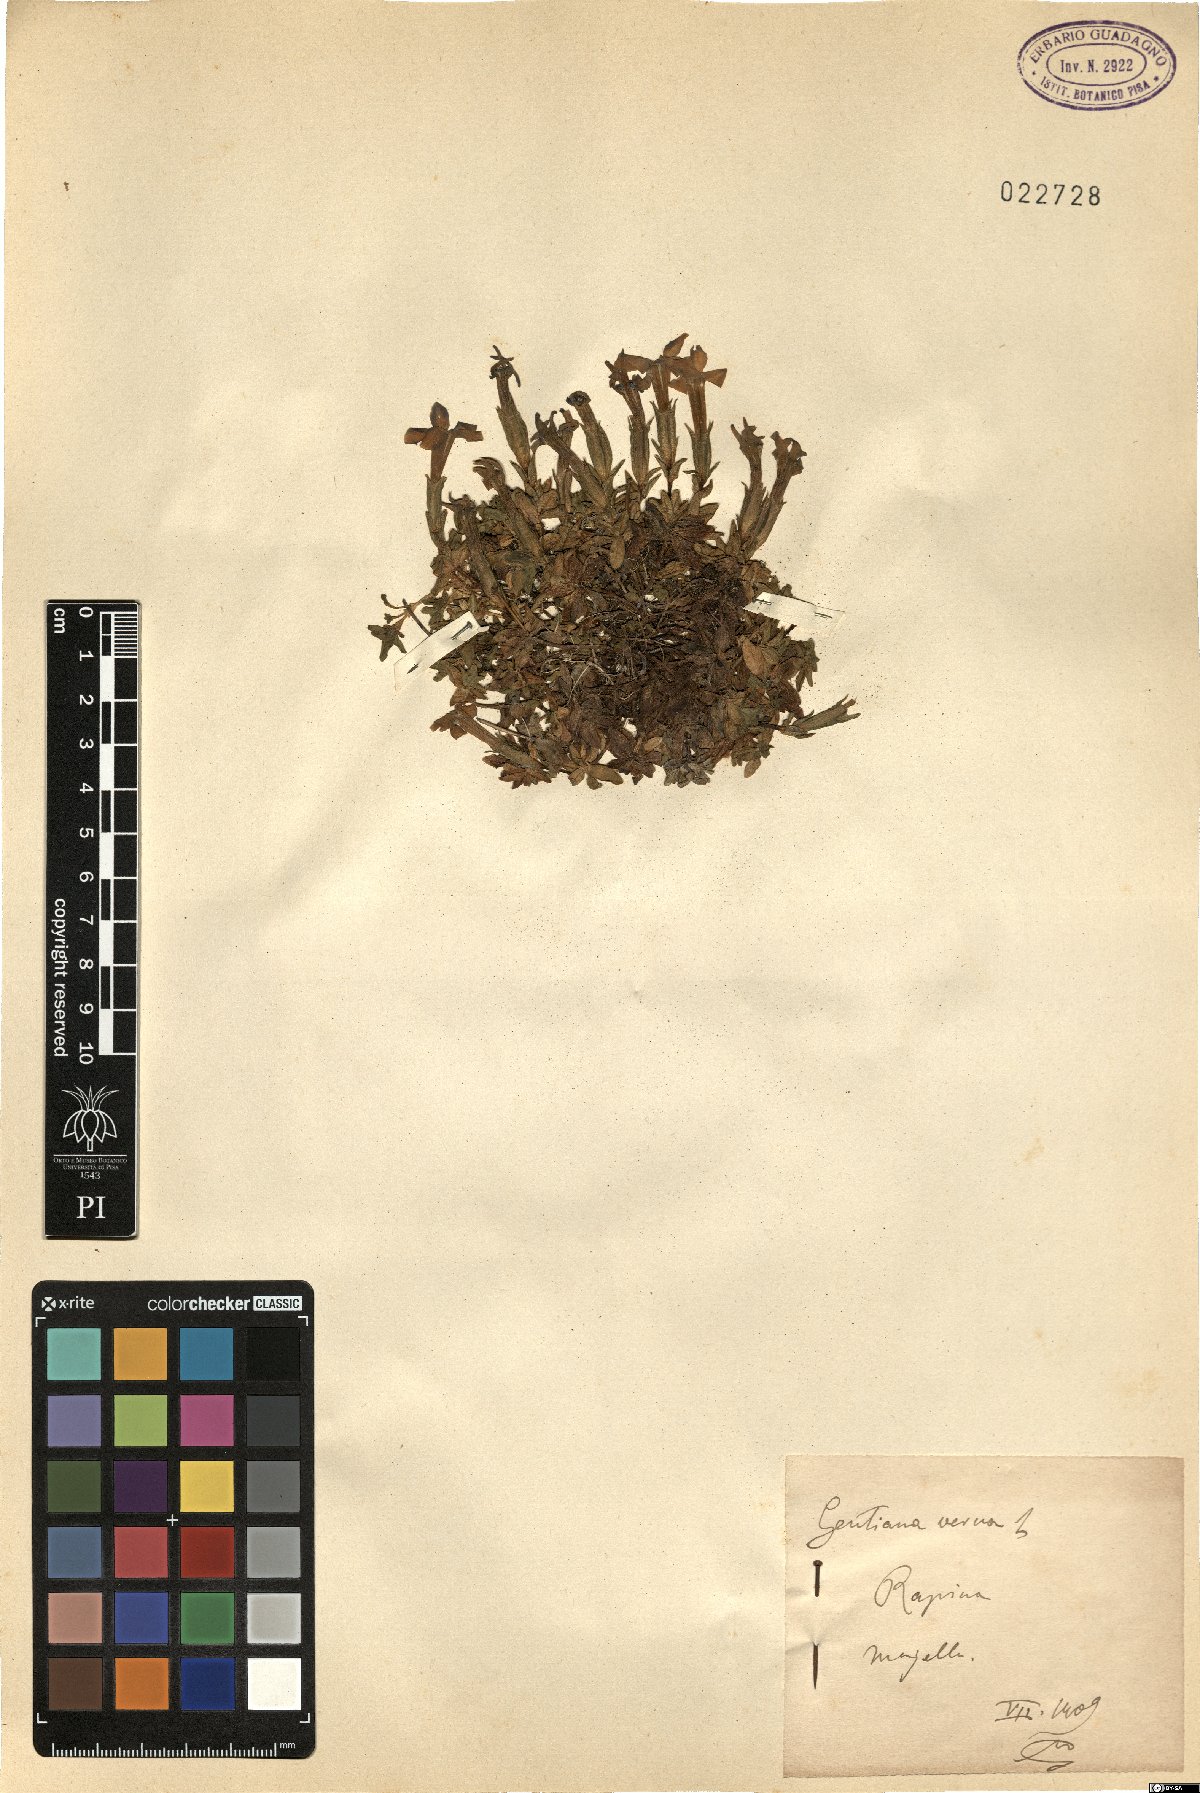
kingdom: Plantae
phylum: Tracheophyta
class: Magnoliopsida
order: Gentianales
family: Gentianaceae
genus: Gentiana
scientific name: Gentiana verna
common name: Spring gentian
